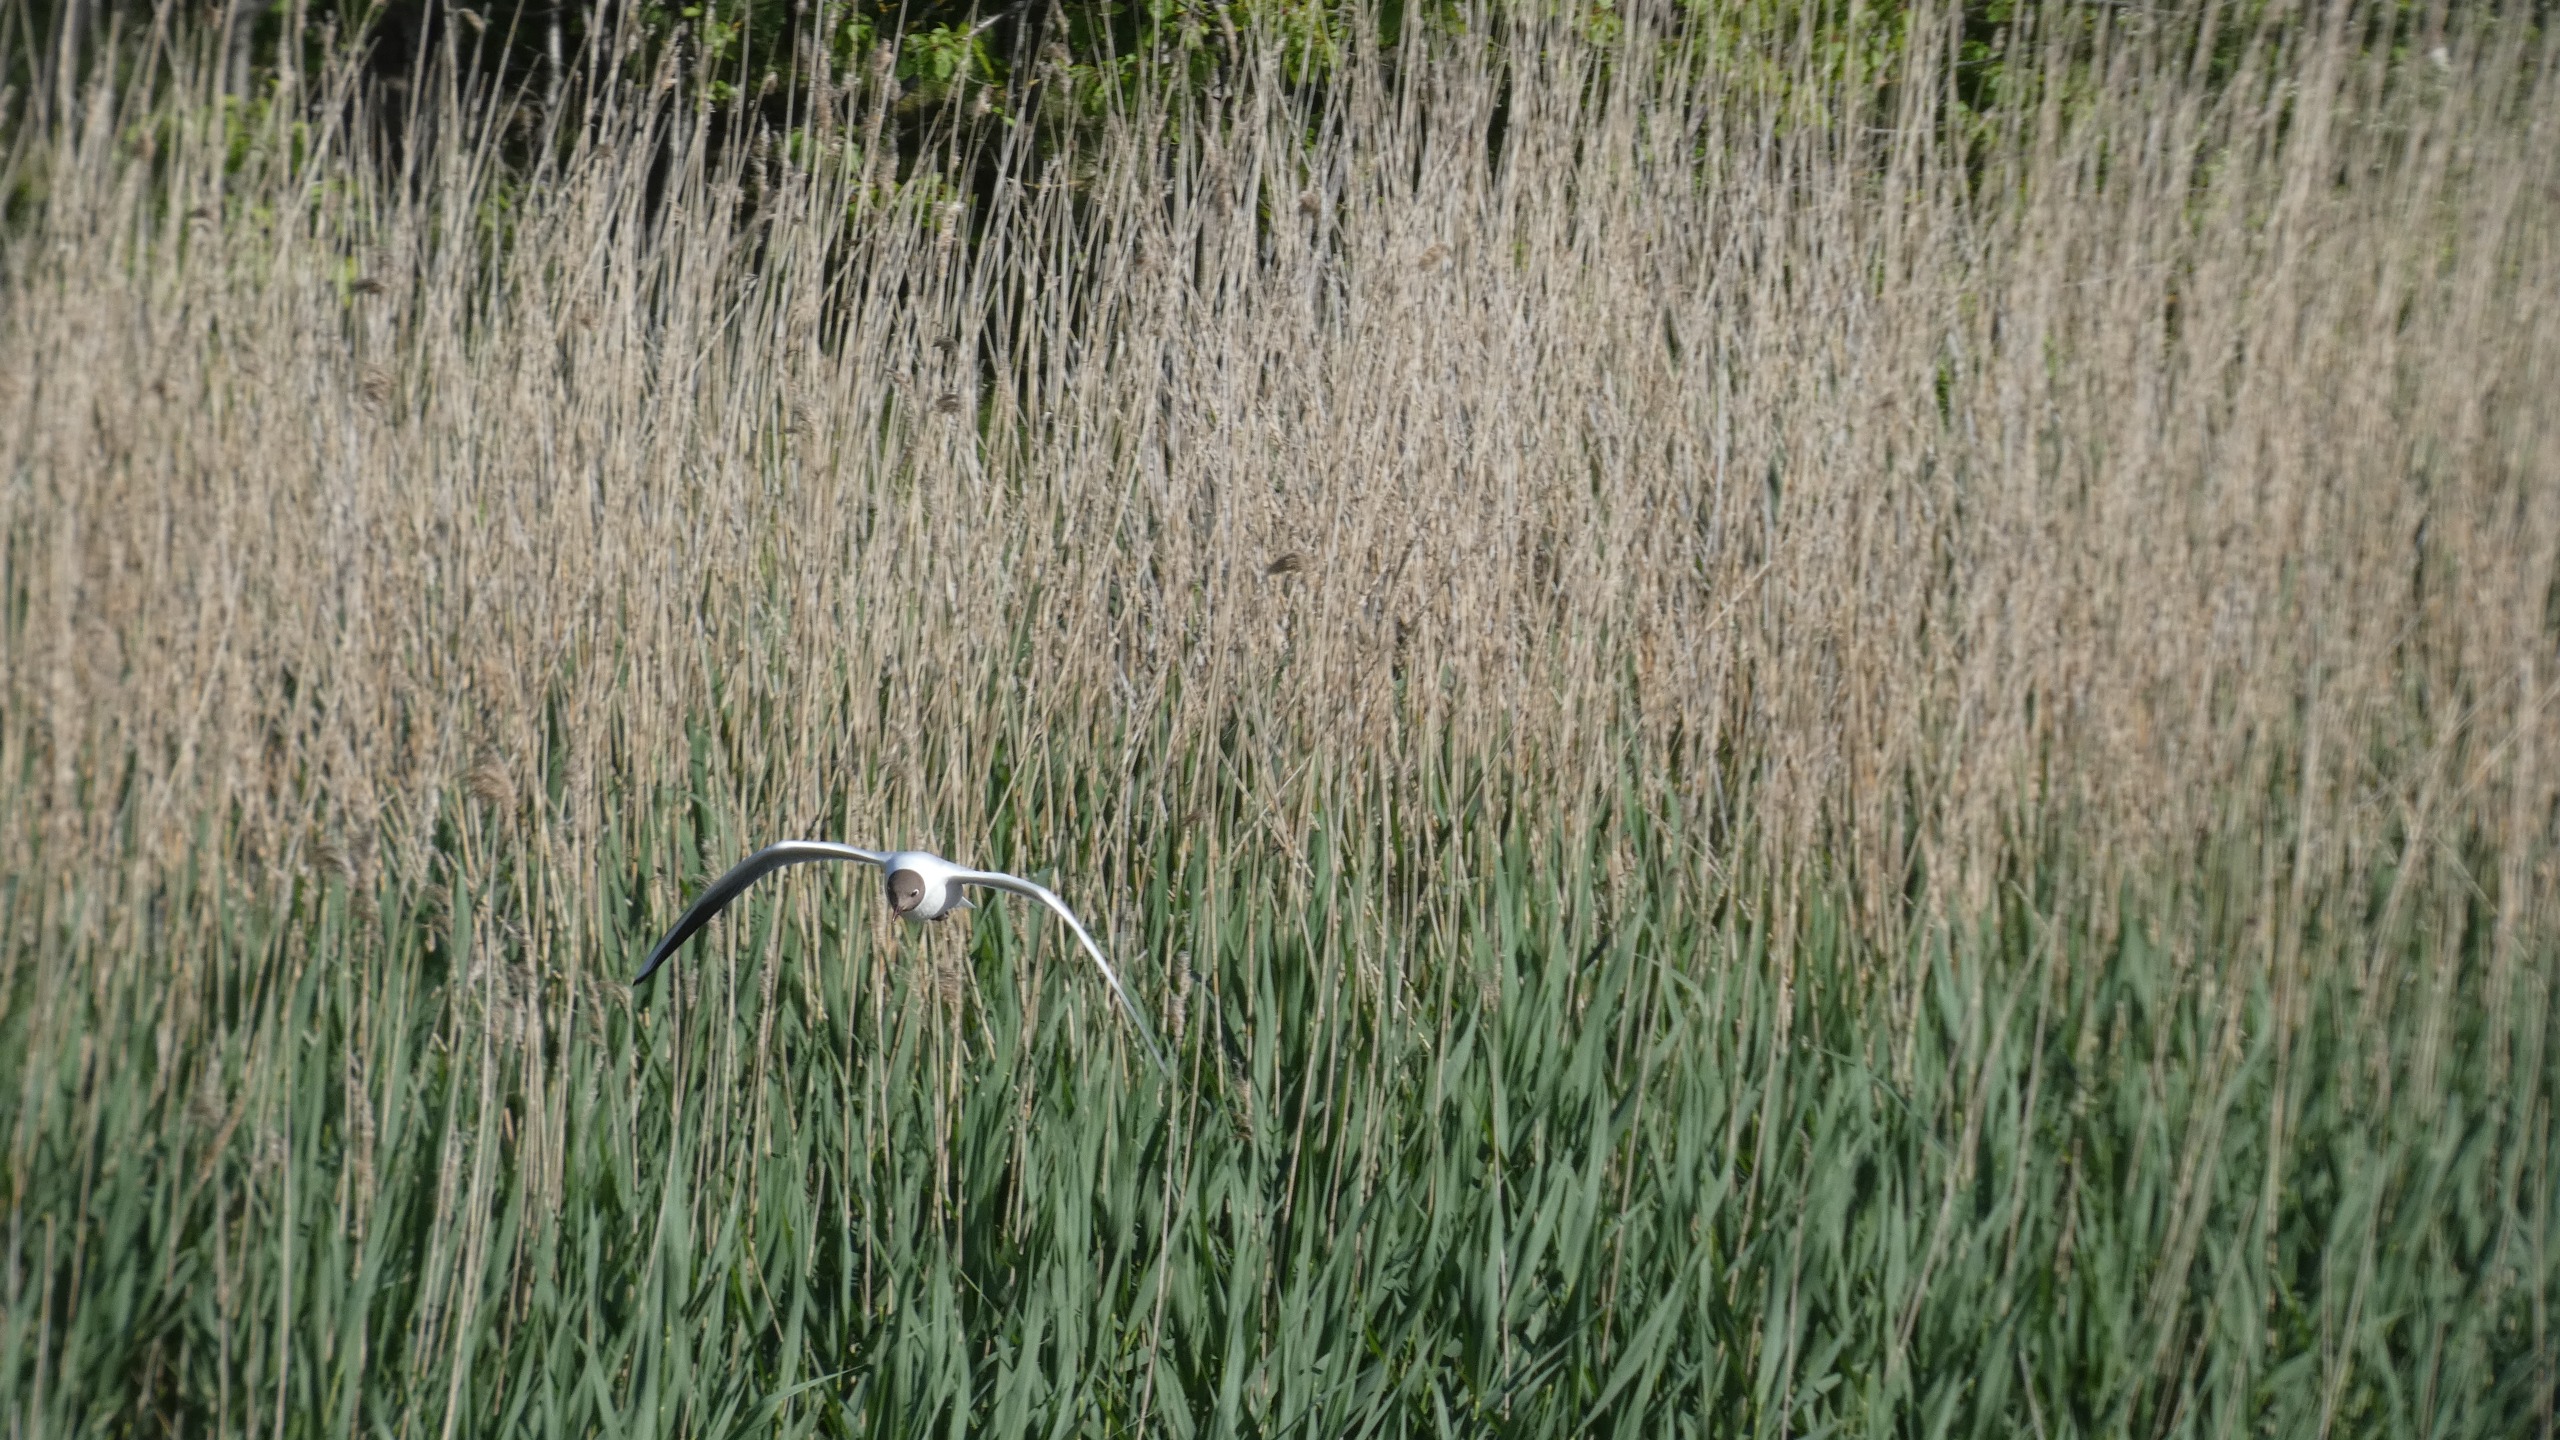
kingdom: Animalia
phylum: Chordata
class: Aves
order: Charadriiformes
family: Laridae
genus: Chroicocephalus
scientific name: Chroicocephalus ridibundus
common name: Hættemåge
